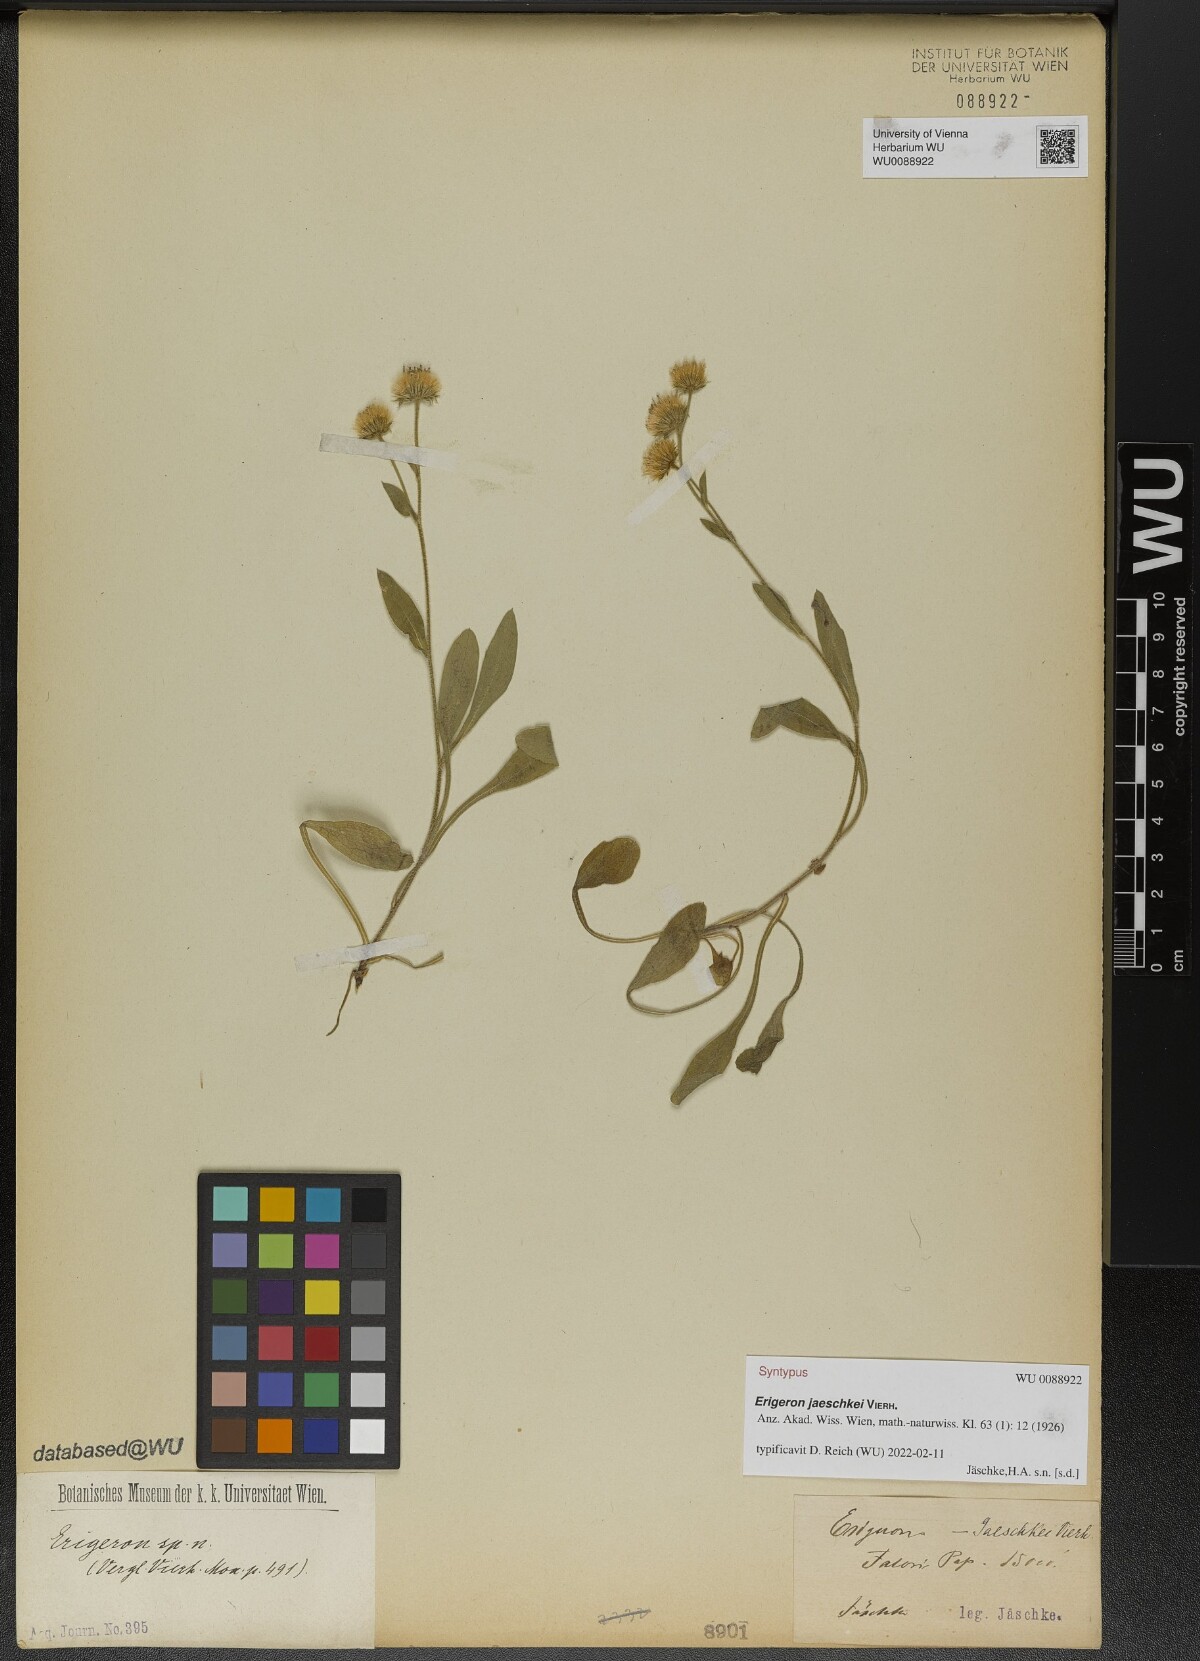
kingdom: Plantae
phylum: Tracheophyta
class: Magnoliopsida
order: Asterales
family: Asteraceae
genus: Erigeron
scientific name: Erigeron jaeschkei
